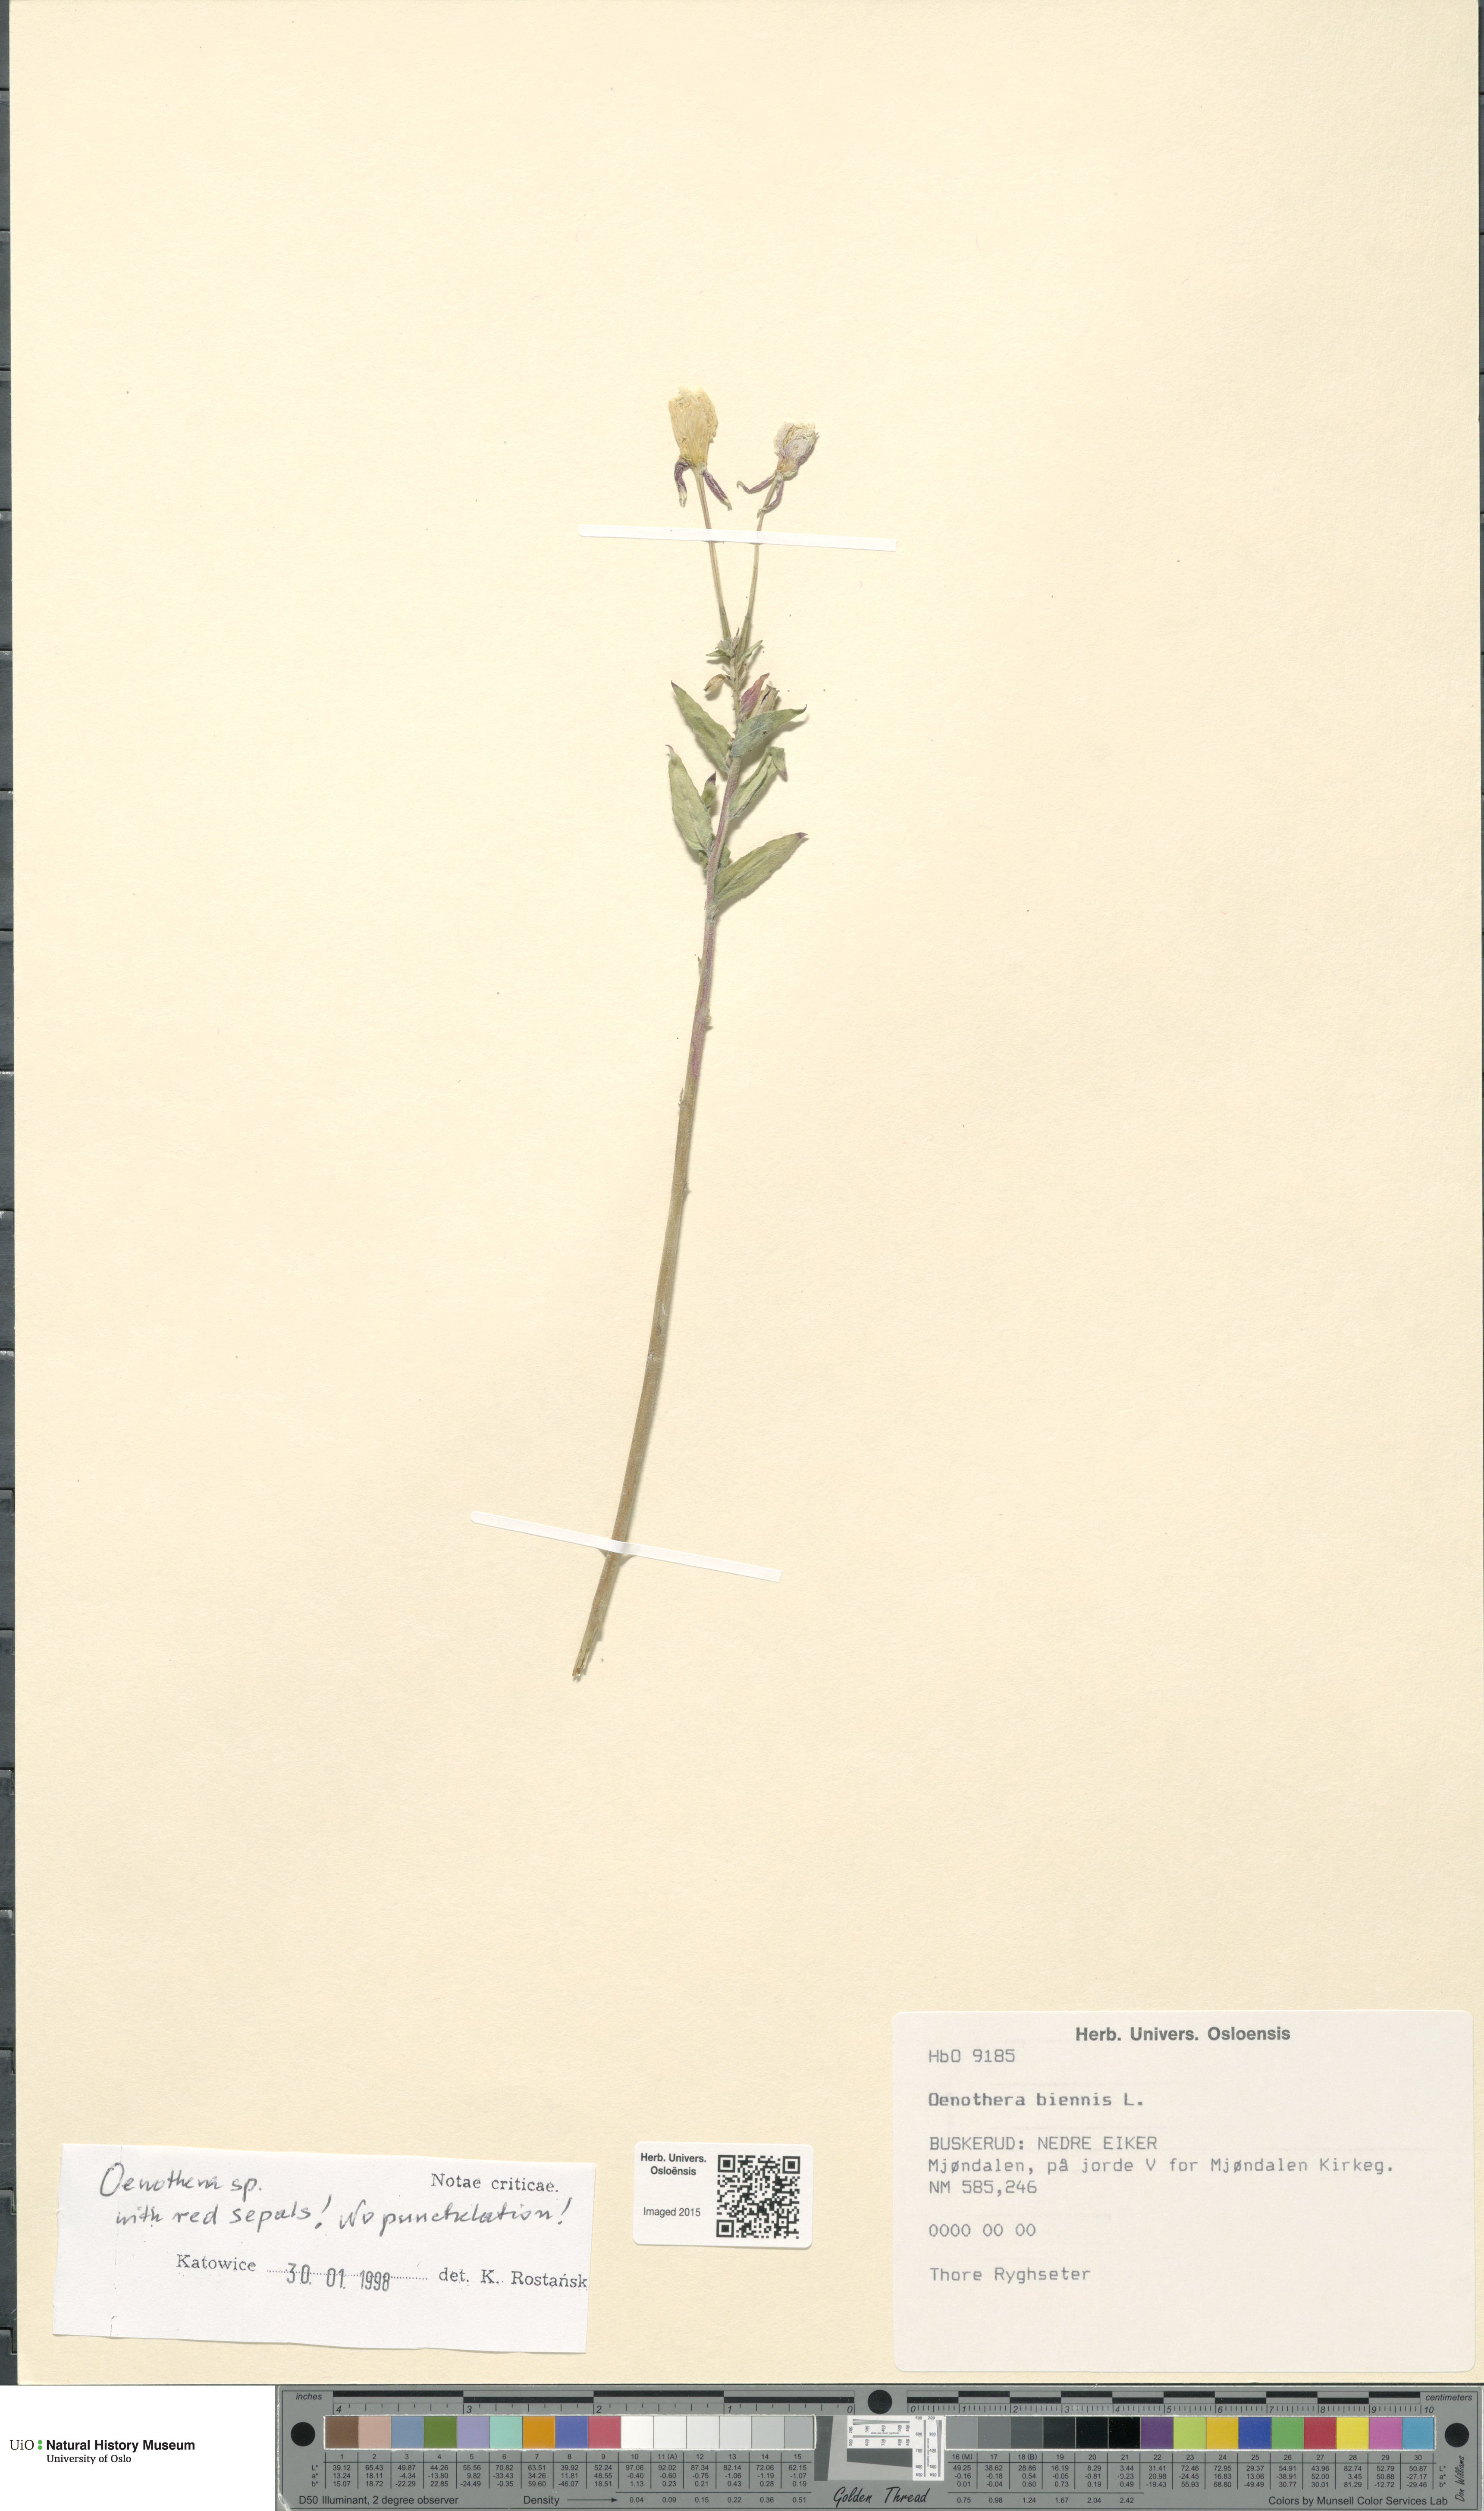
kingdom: Plantae
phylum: Tracheophyta
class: Magnoliopsida
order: Myrtales
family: Onagraceae
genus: Oenothera
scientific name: Oenothera biennis
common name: Common evening-primrose
